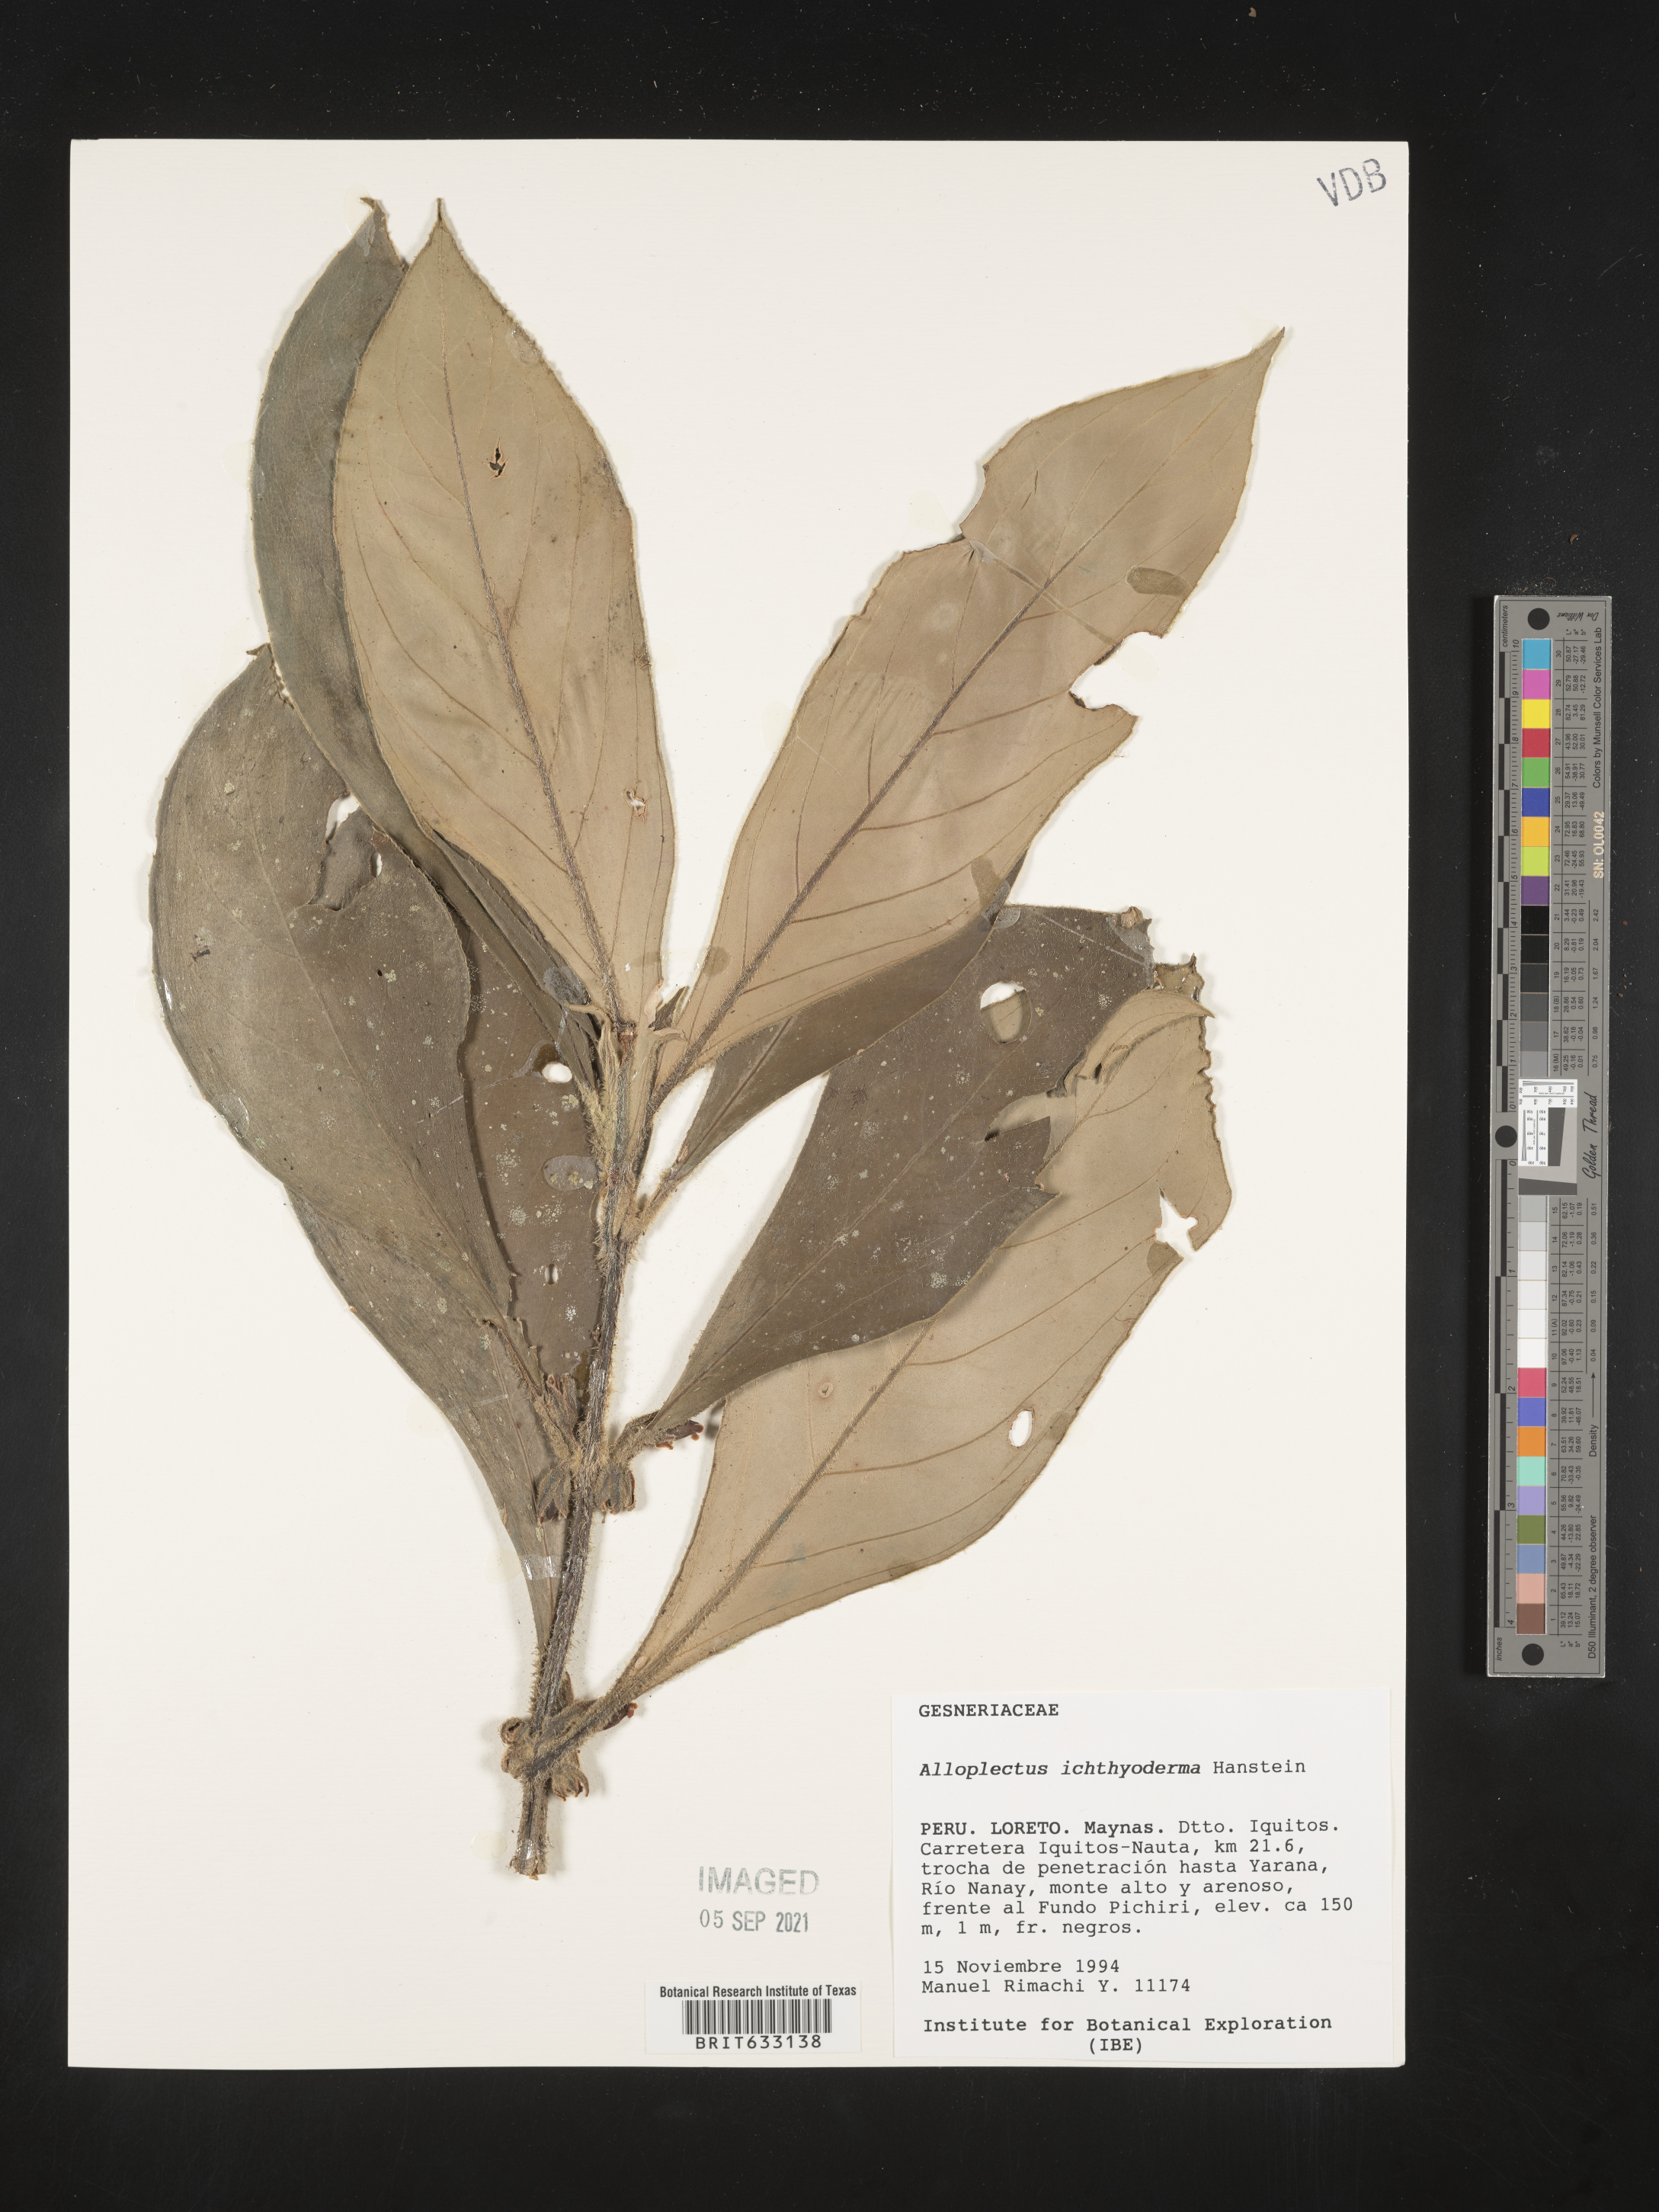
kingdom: Plantae
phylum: Tracheophyta
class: Magnoliopsida
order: Lamiales
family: Gesneriaceae
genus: Alloplectus
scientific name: Alloplectus
